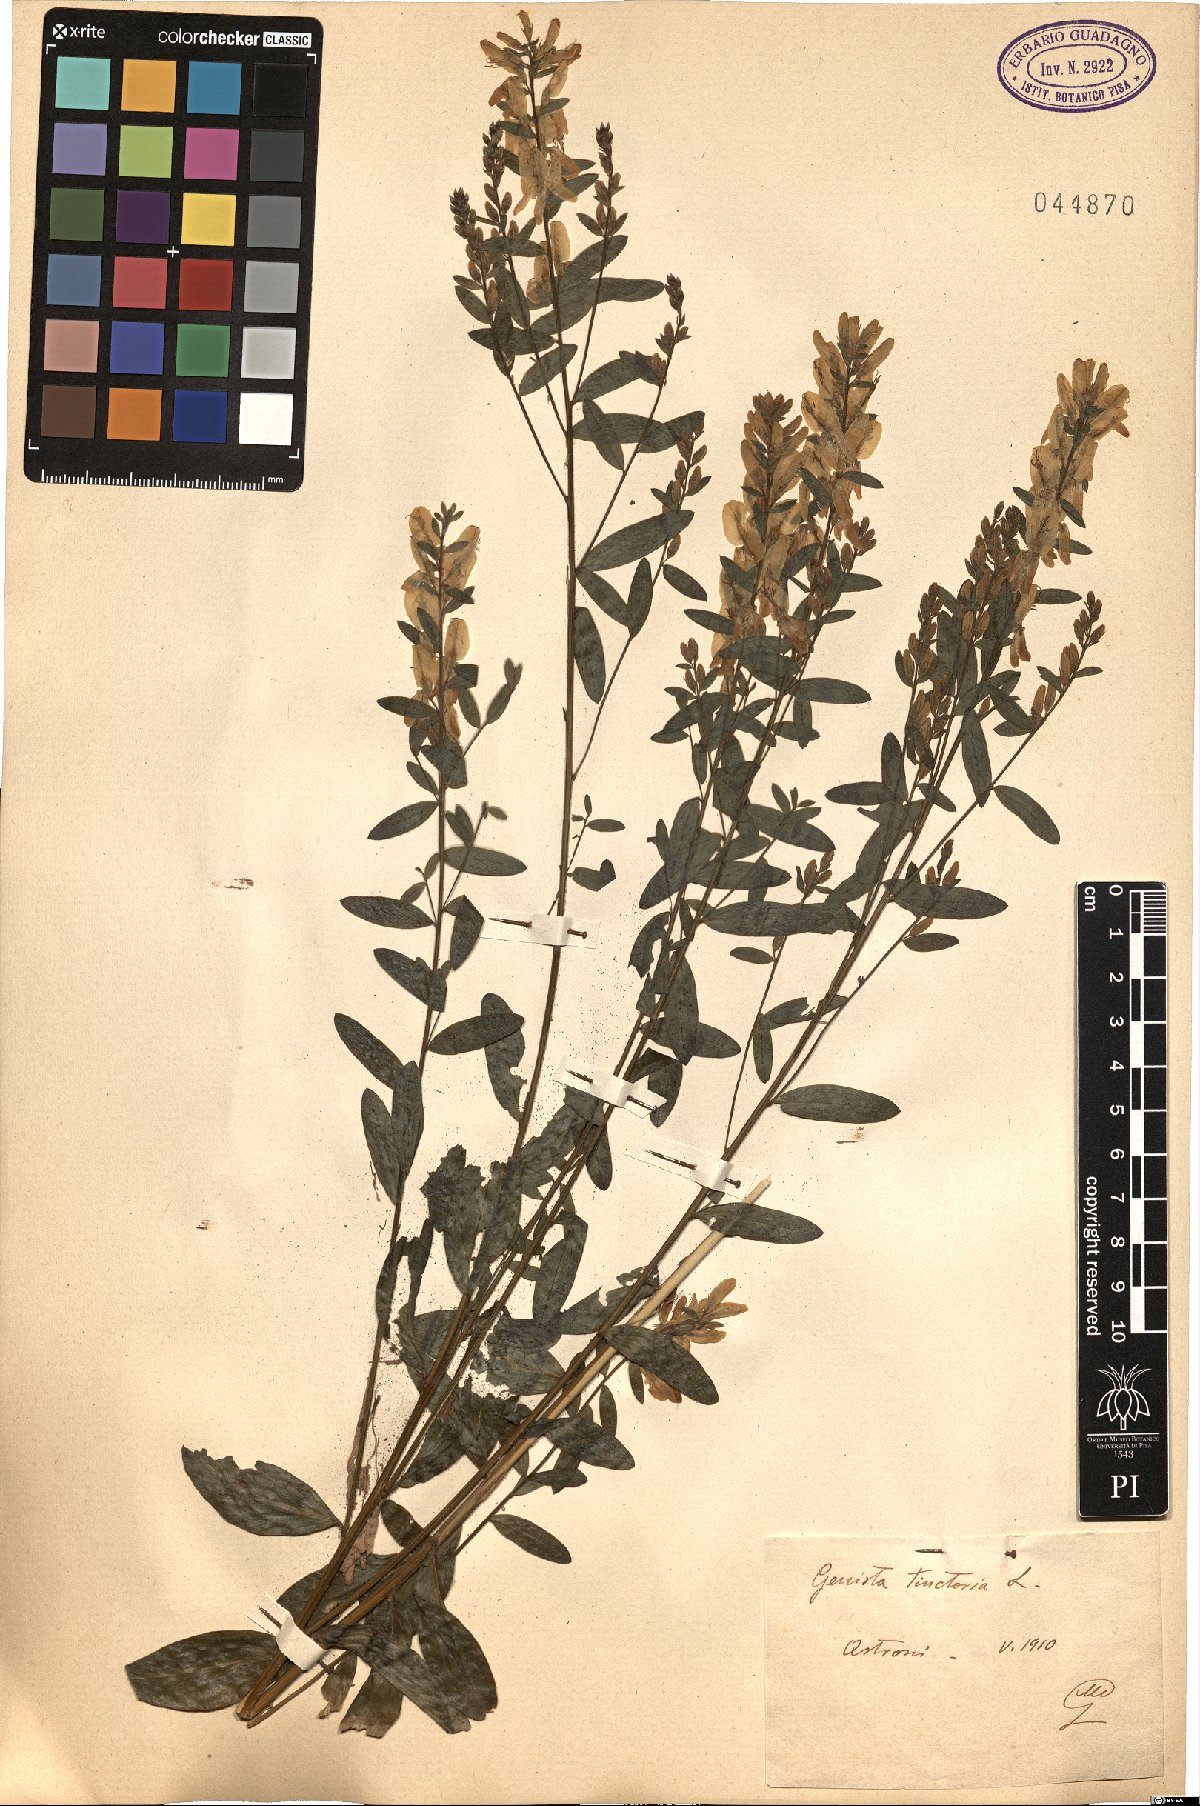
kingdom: Plantae
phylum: Tracheophyta
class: Magnoliopsida
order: Fabales
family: Fabaceae
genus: Genista
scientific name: Genista tinctoria
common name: Dyer's greenweed
